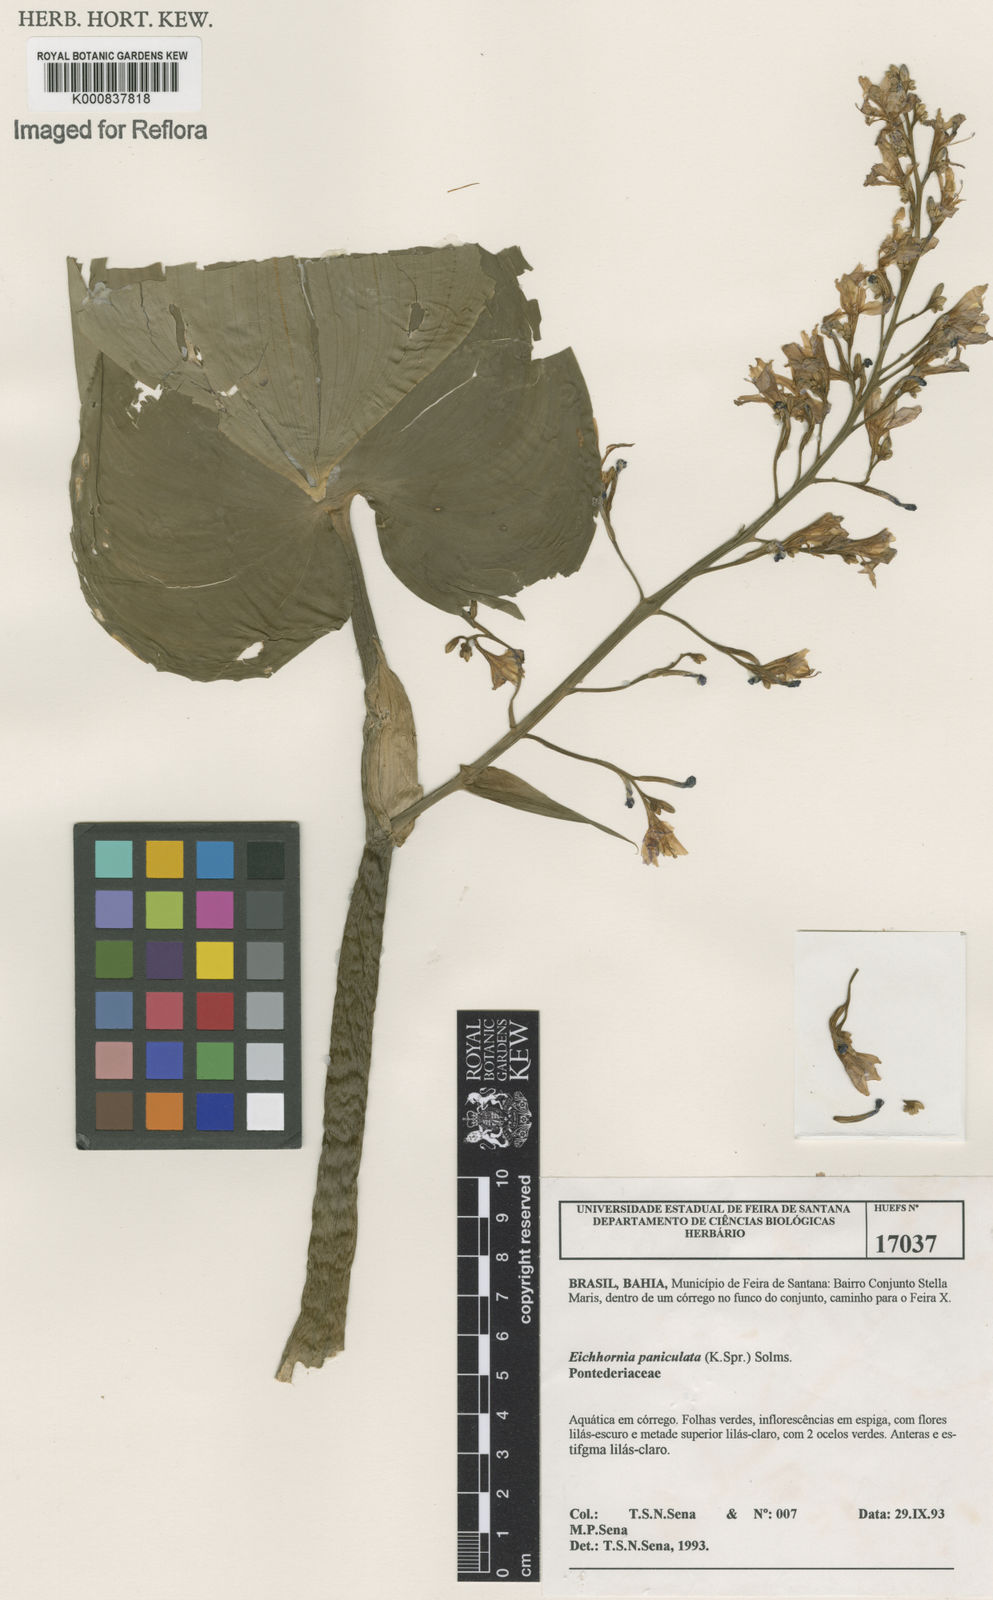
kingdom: Plantae
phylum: Tracheophyta
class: Liliopsida
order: Commelinales
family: Pontederiaceae
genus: Pontederia
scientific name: Pontederia paniculata
